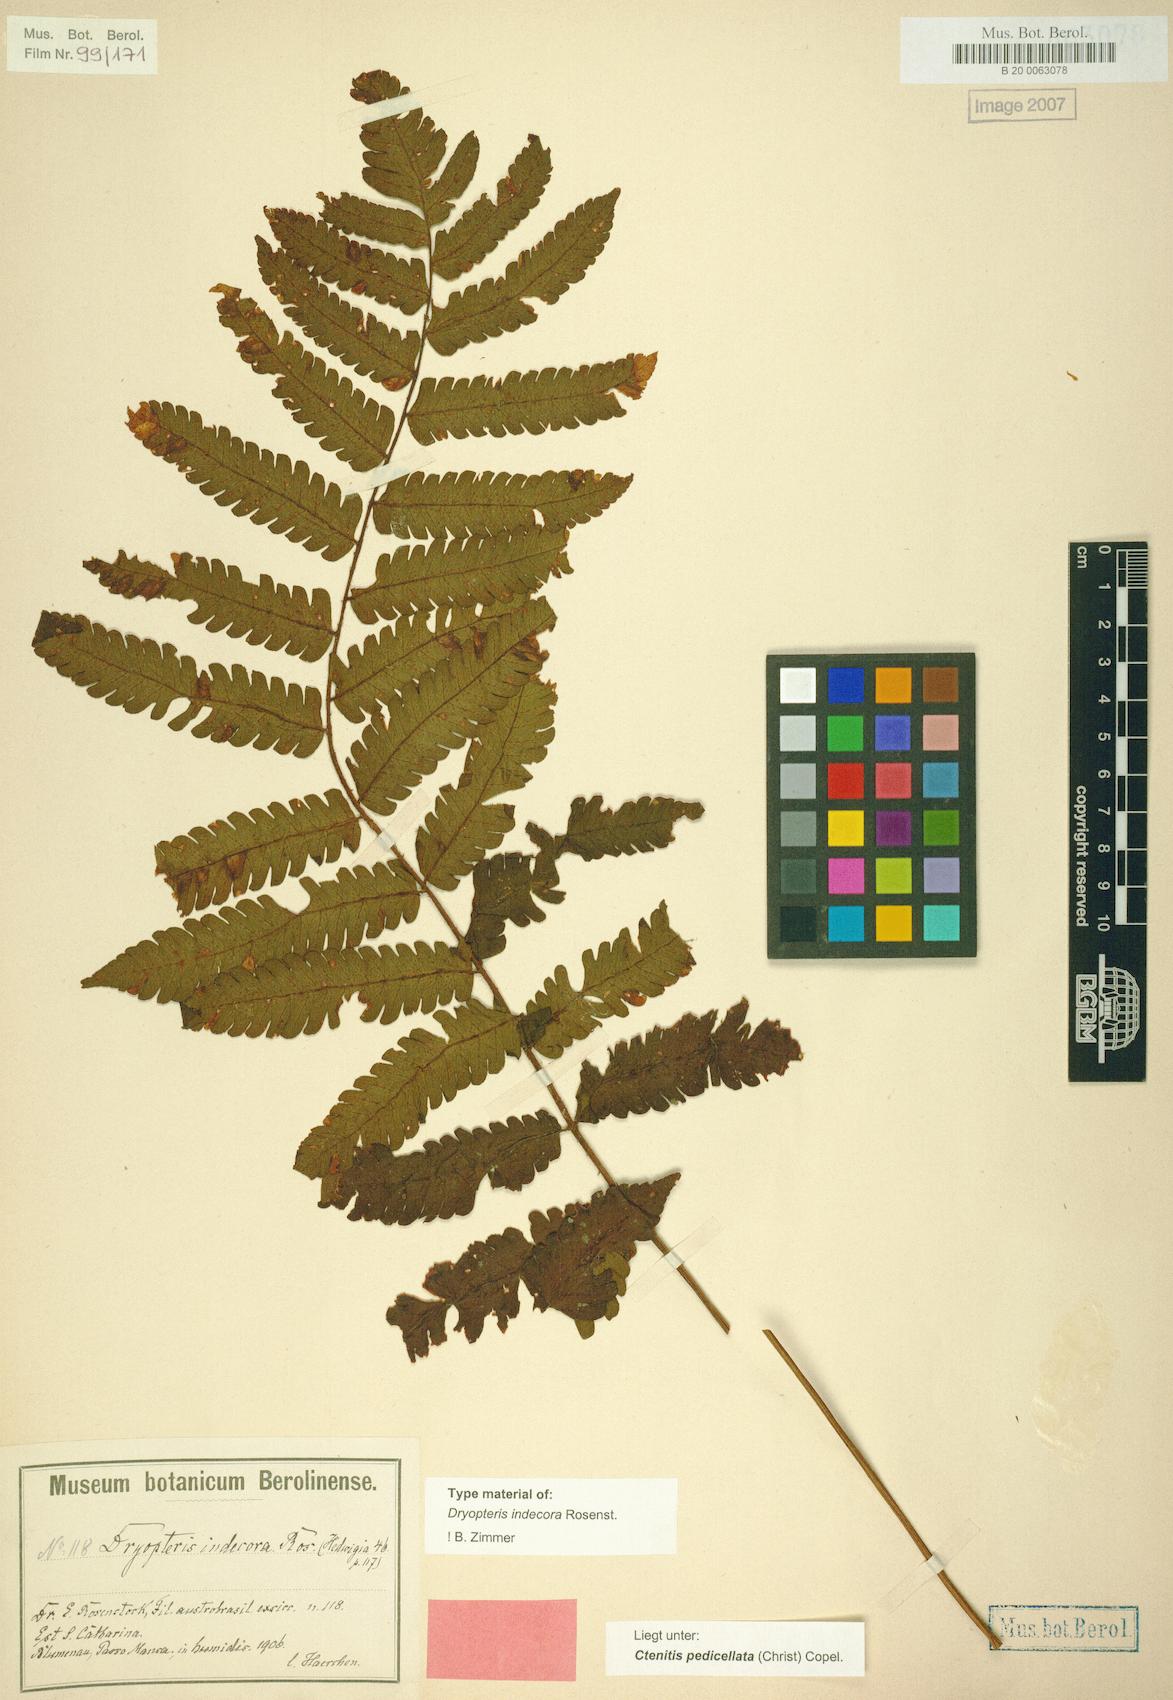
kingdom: Plantae
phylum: Tracheophyta
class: Polypodiopsida
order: Polypodiales
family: Dryopteridaceae
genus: Ctenitis
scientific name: Ctenitis nervata
